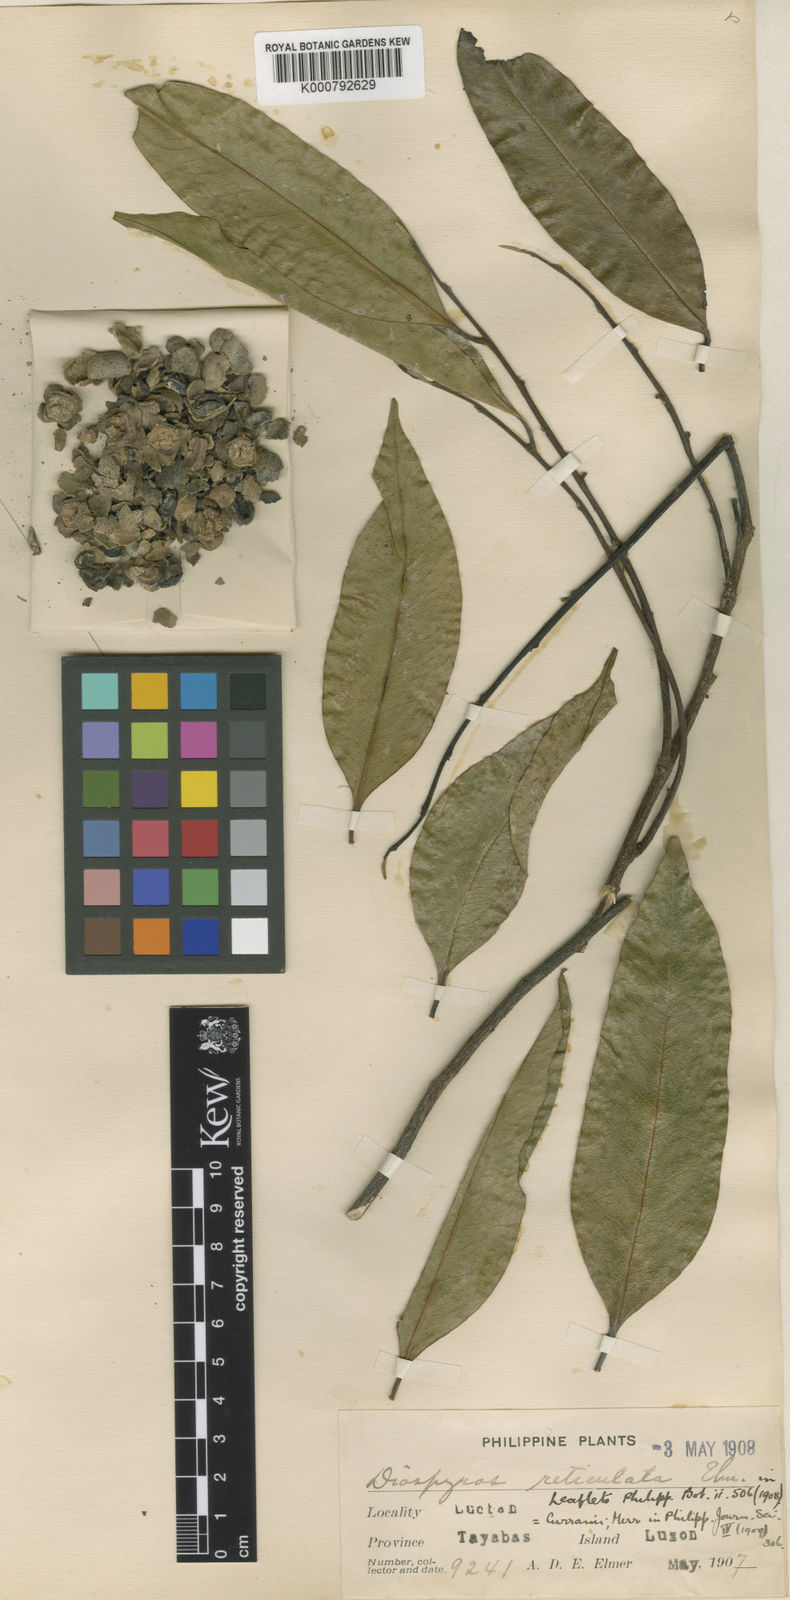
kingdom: Plantae
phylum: Tracheophyta
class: Magnoliopsida
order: Ericales
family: Ebenaceae
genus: Diospyros
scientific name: Diospyros curranii
